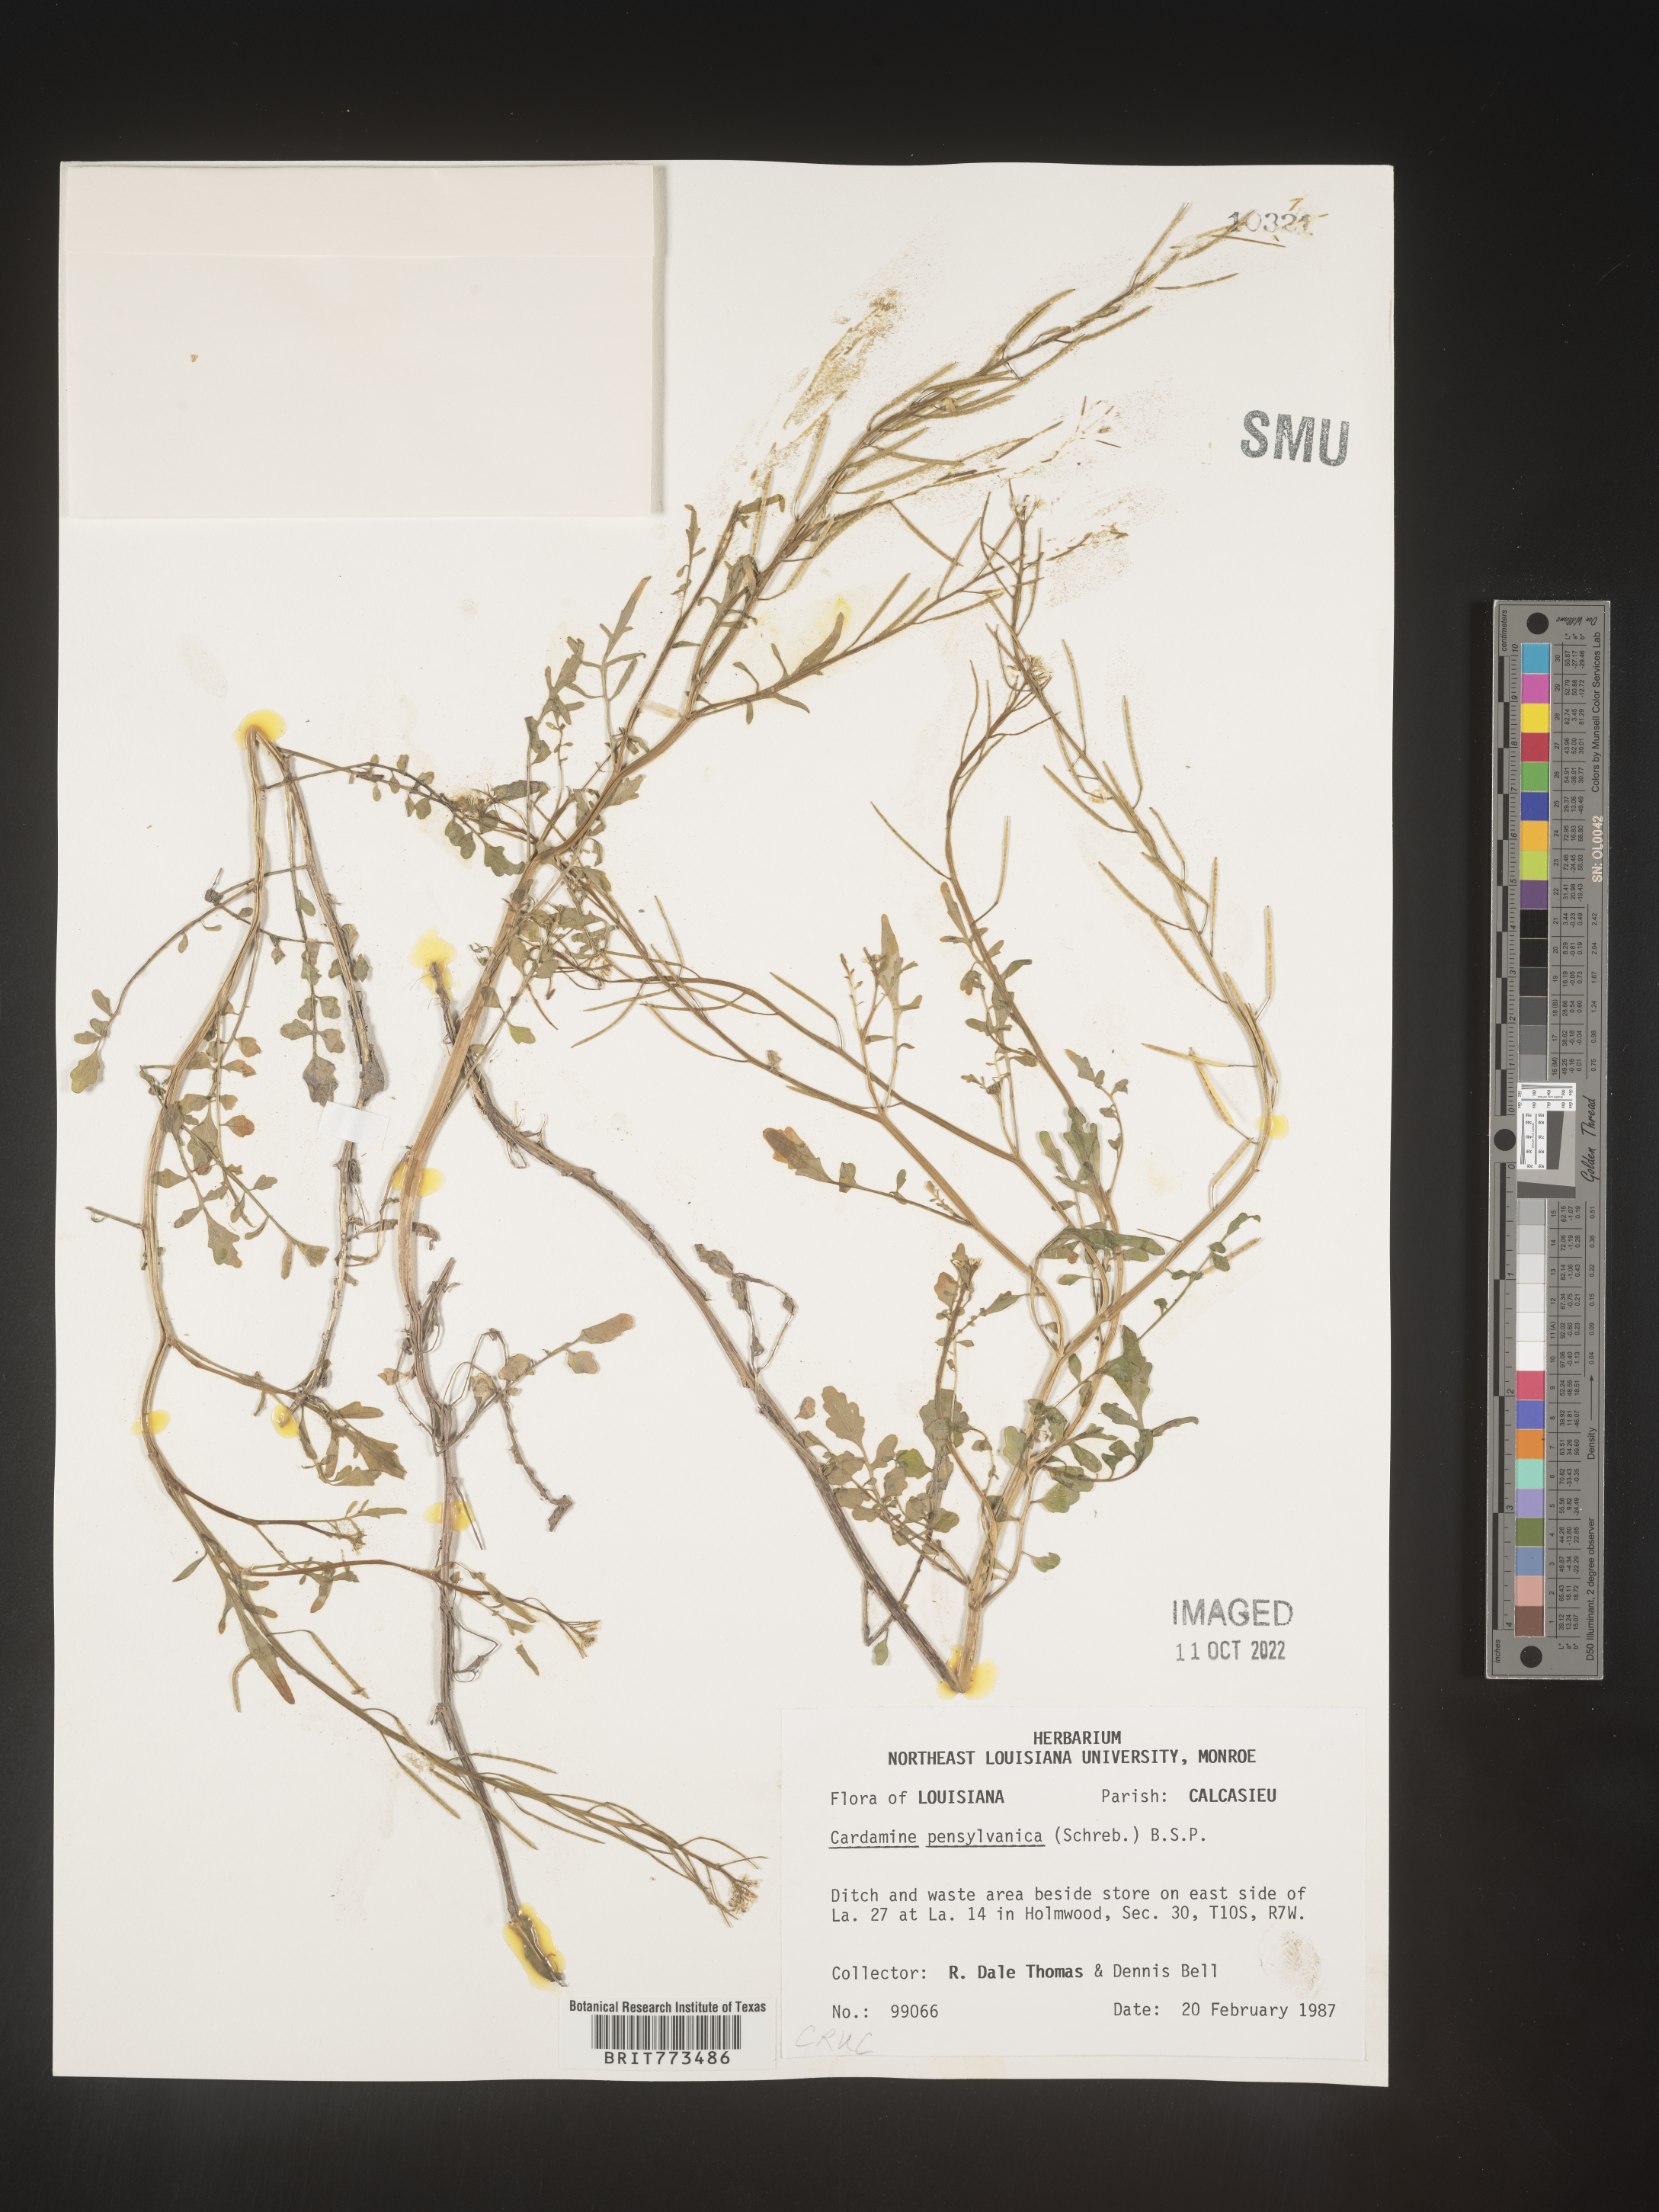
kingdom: Plantae
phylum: Tracheophyta
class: Magnoliopsida
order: Brassicales
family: Brassicaceae
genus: Cardamine
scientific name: Cardamine pensylvanica
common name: Pennsylvania bittercress
